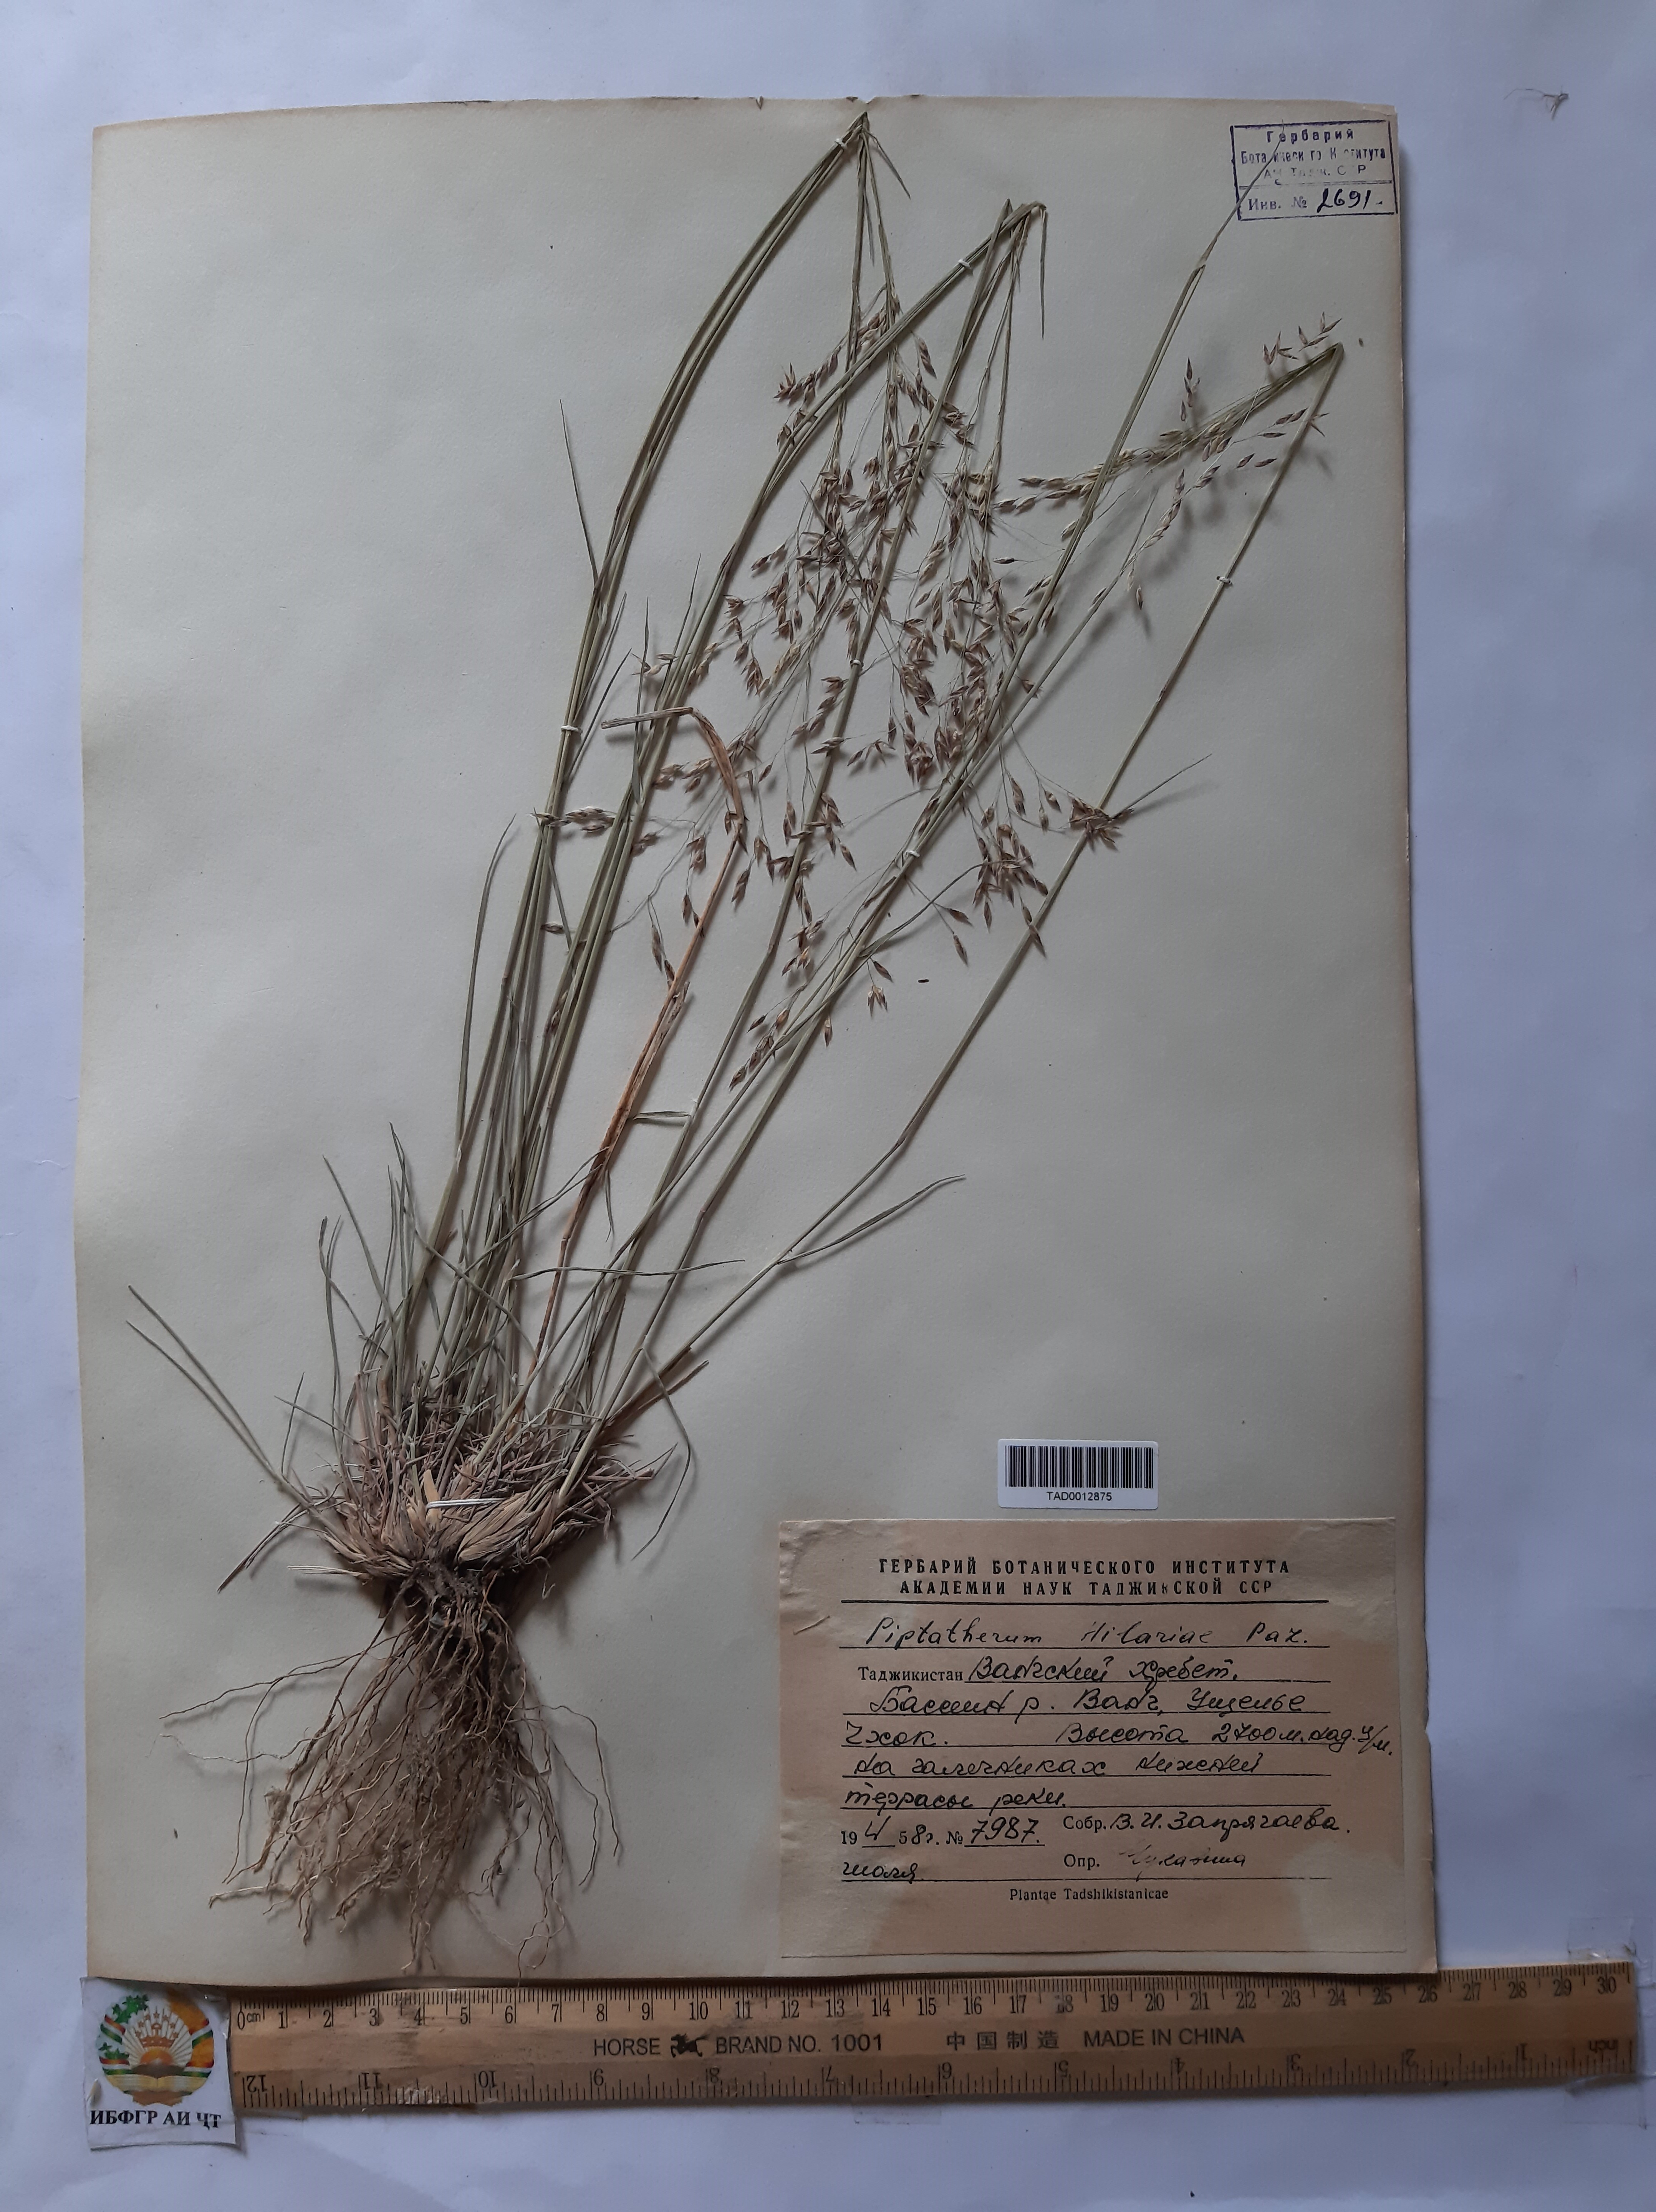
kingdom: Plantae
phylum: Tracheophyta
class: Liliopsida
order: Poales
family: Poaceae
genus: Piptatherum
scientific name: Piptatherum hilariae
